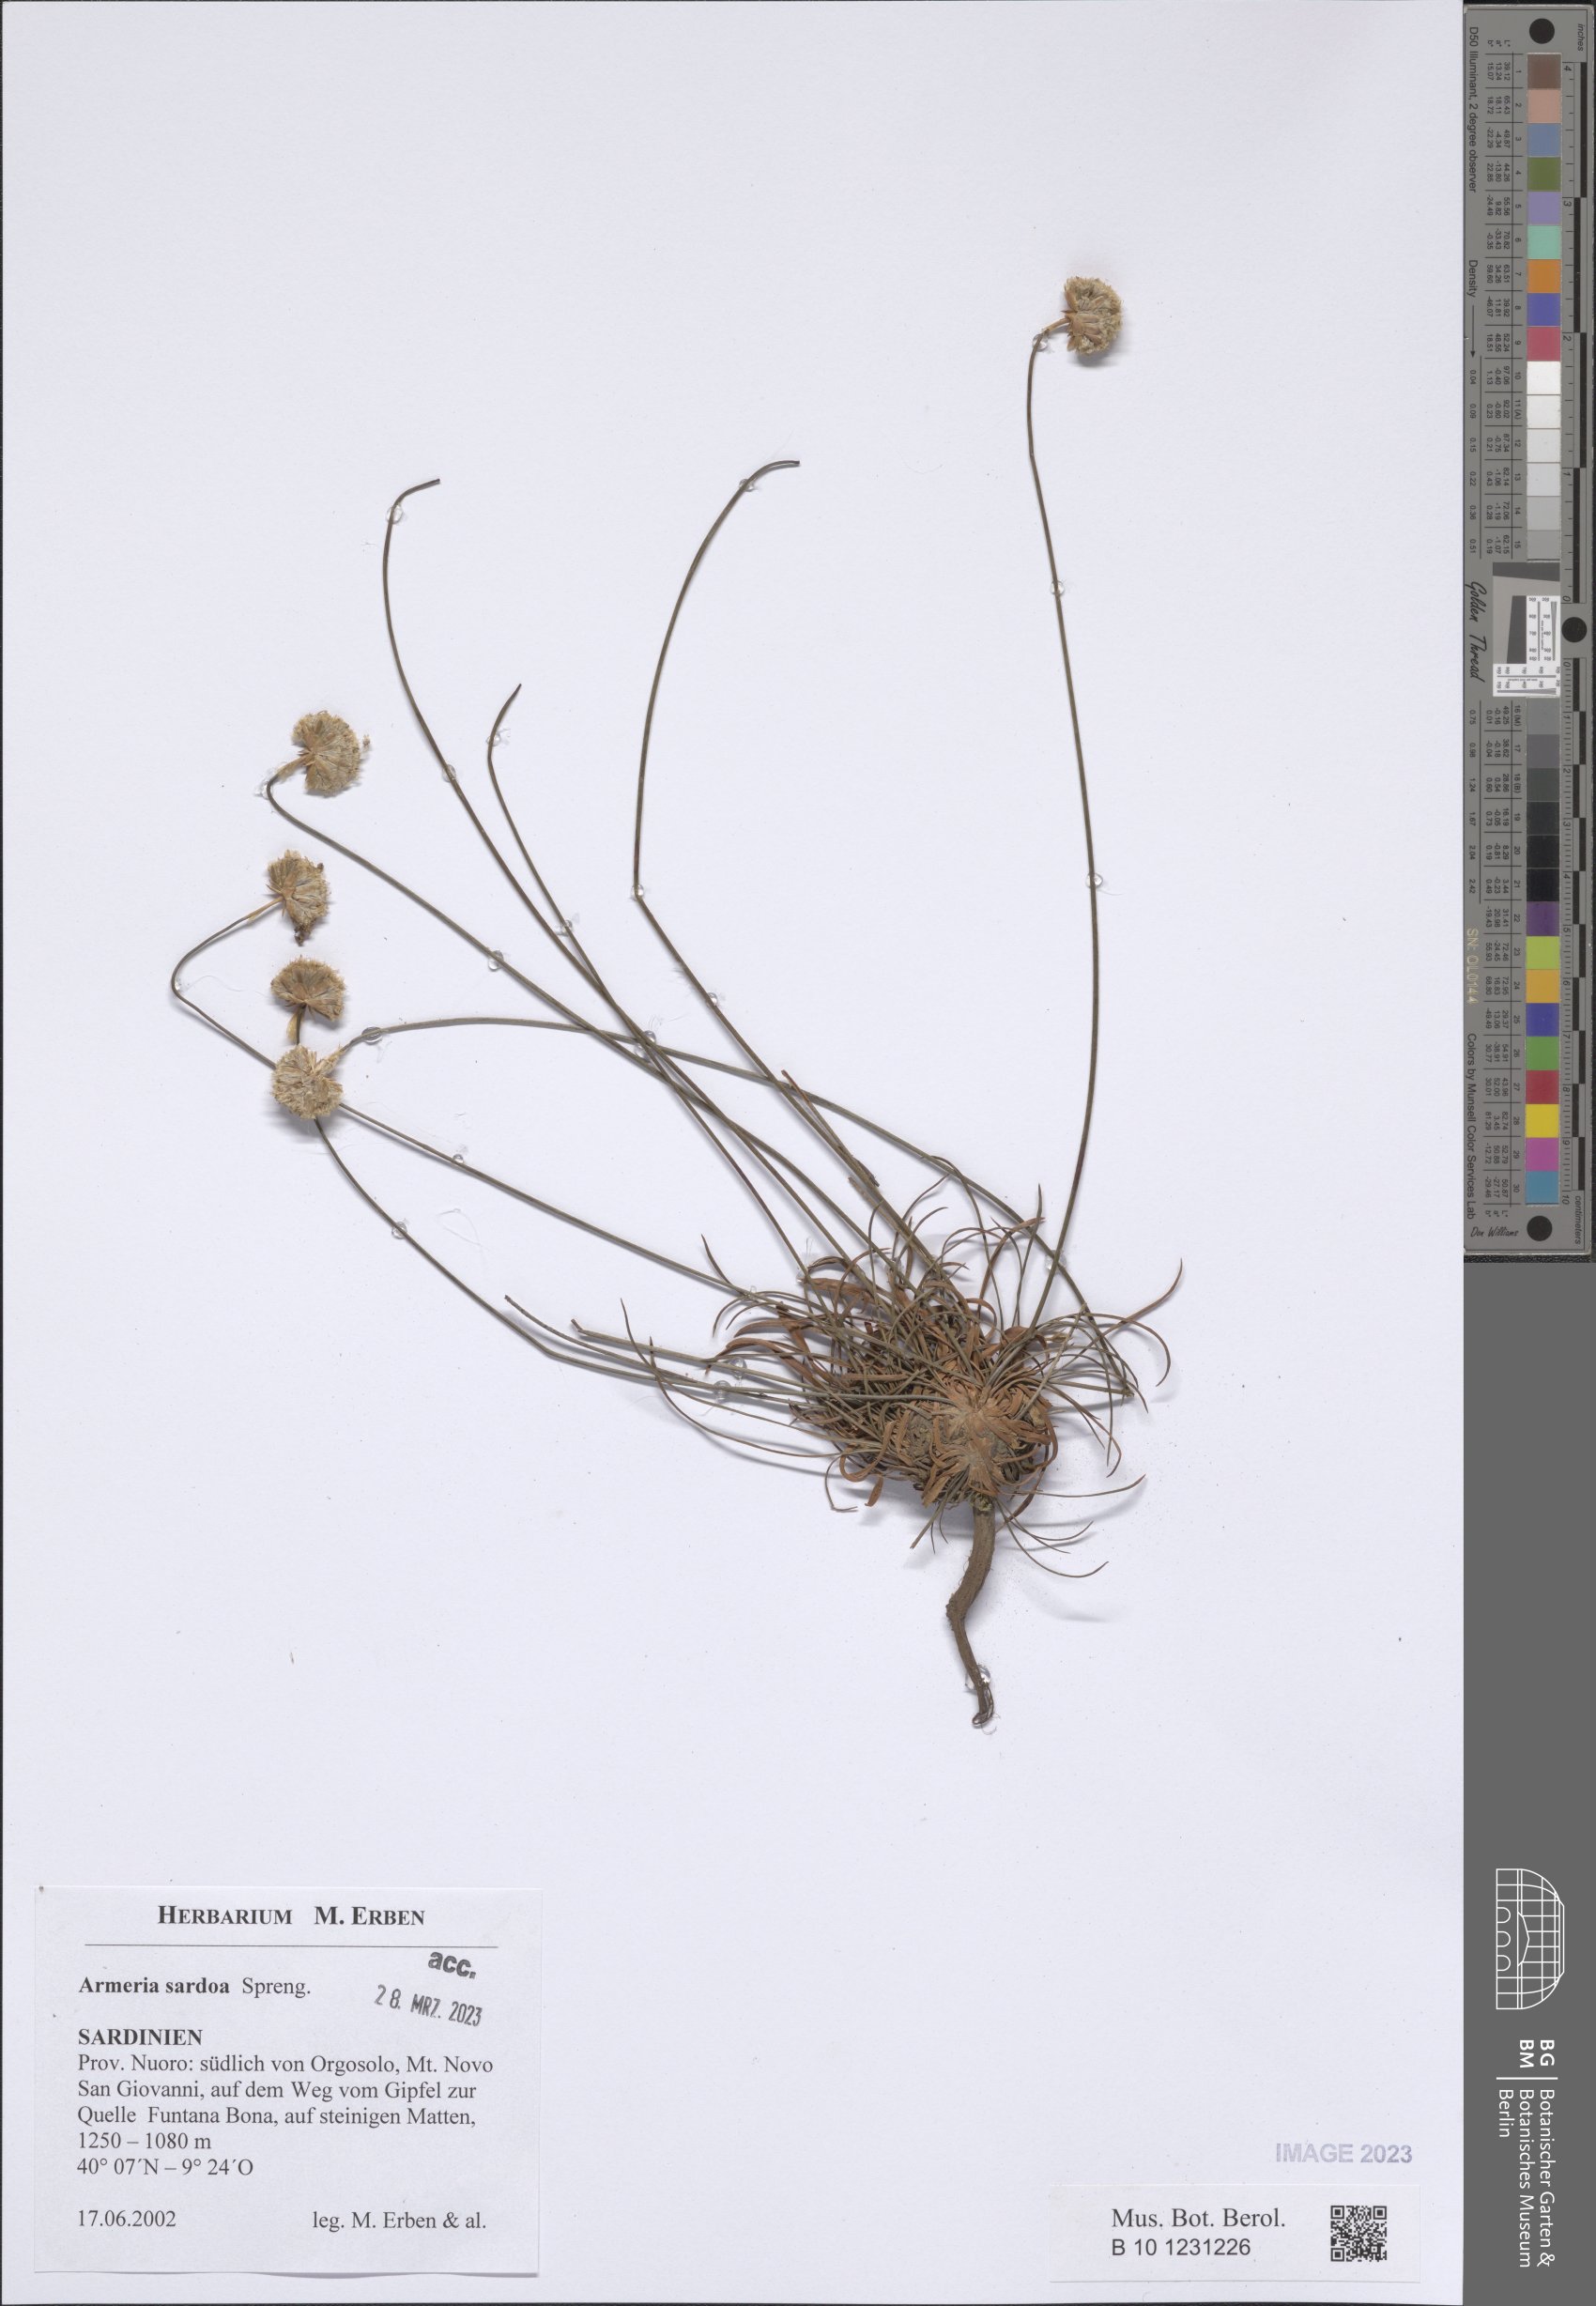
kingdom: Plantae
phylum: Tracheophyta
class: Magnoliopsida
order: Caryophyllales
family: Plumbaginaceae
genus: Armeria
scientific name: Armeria sardoa
